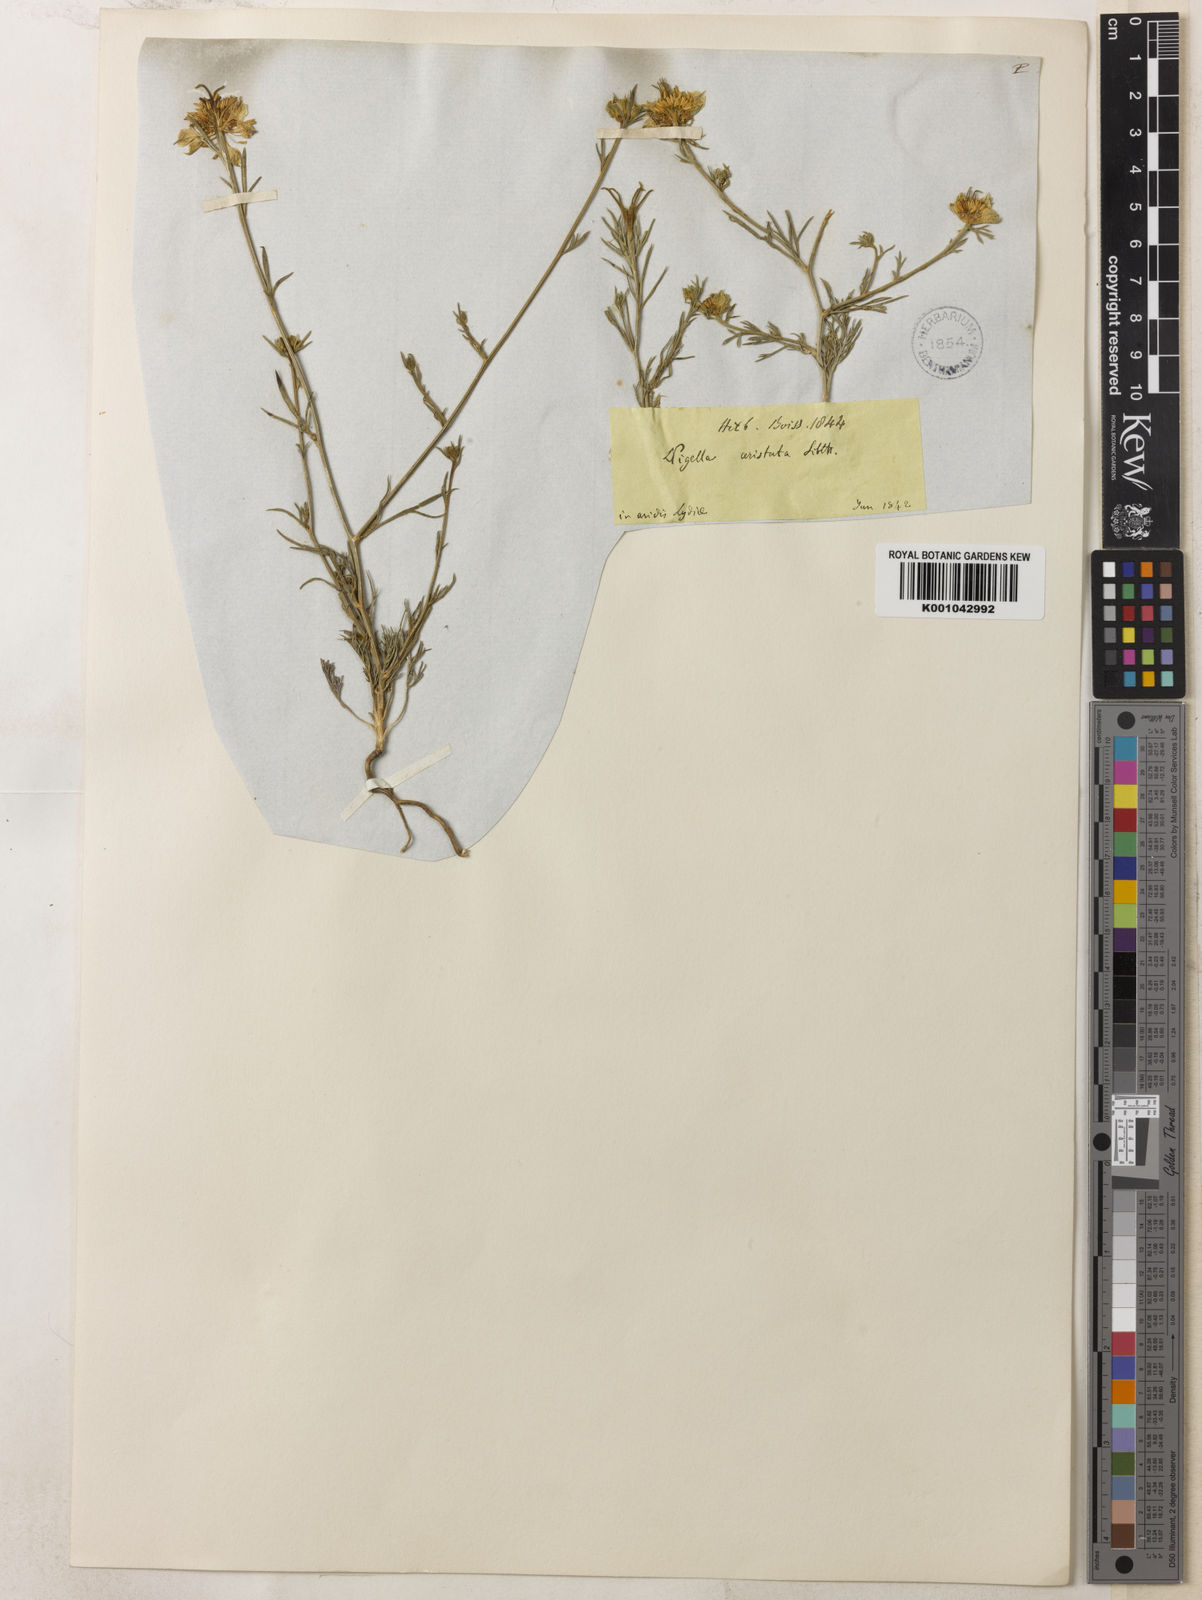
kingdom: Plantae
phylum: Tracheophyta
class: Magnoliopsida
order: Ranunculales
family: Ranunculaceae
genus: Nigella
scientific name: Nigella arvensis
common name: Wild fennel-flower
